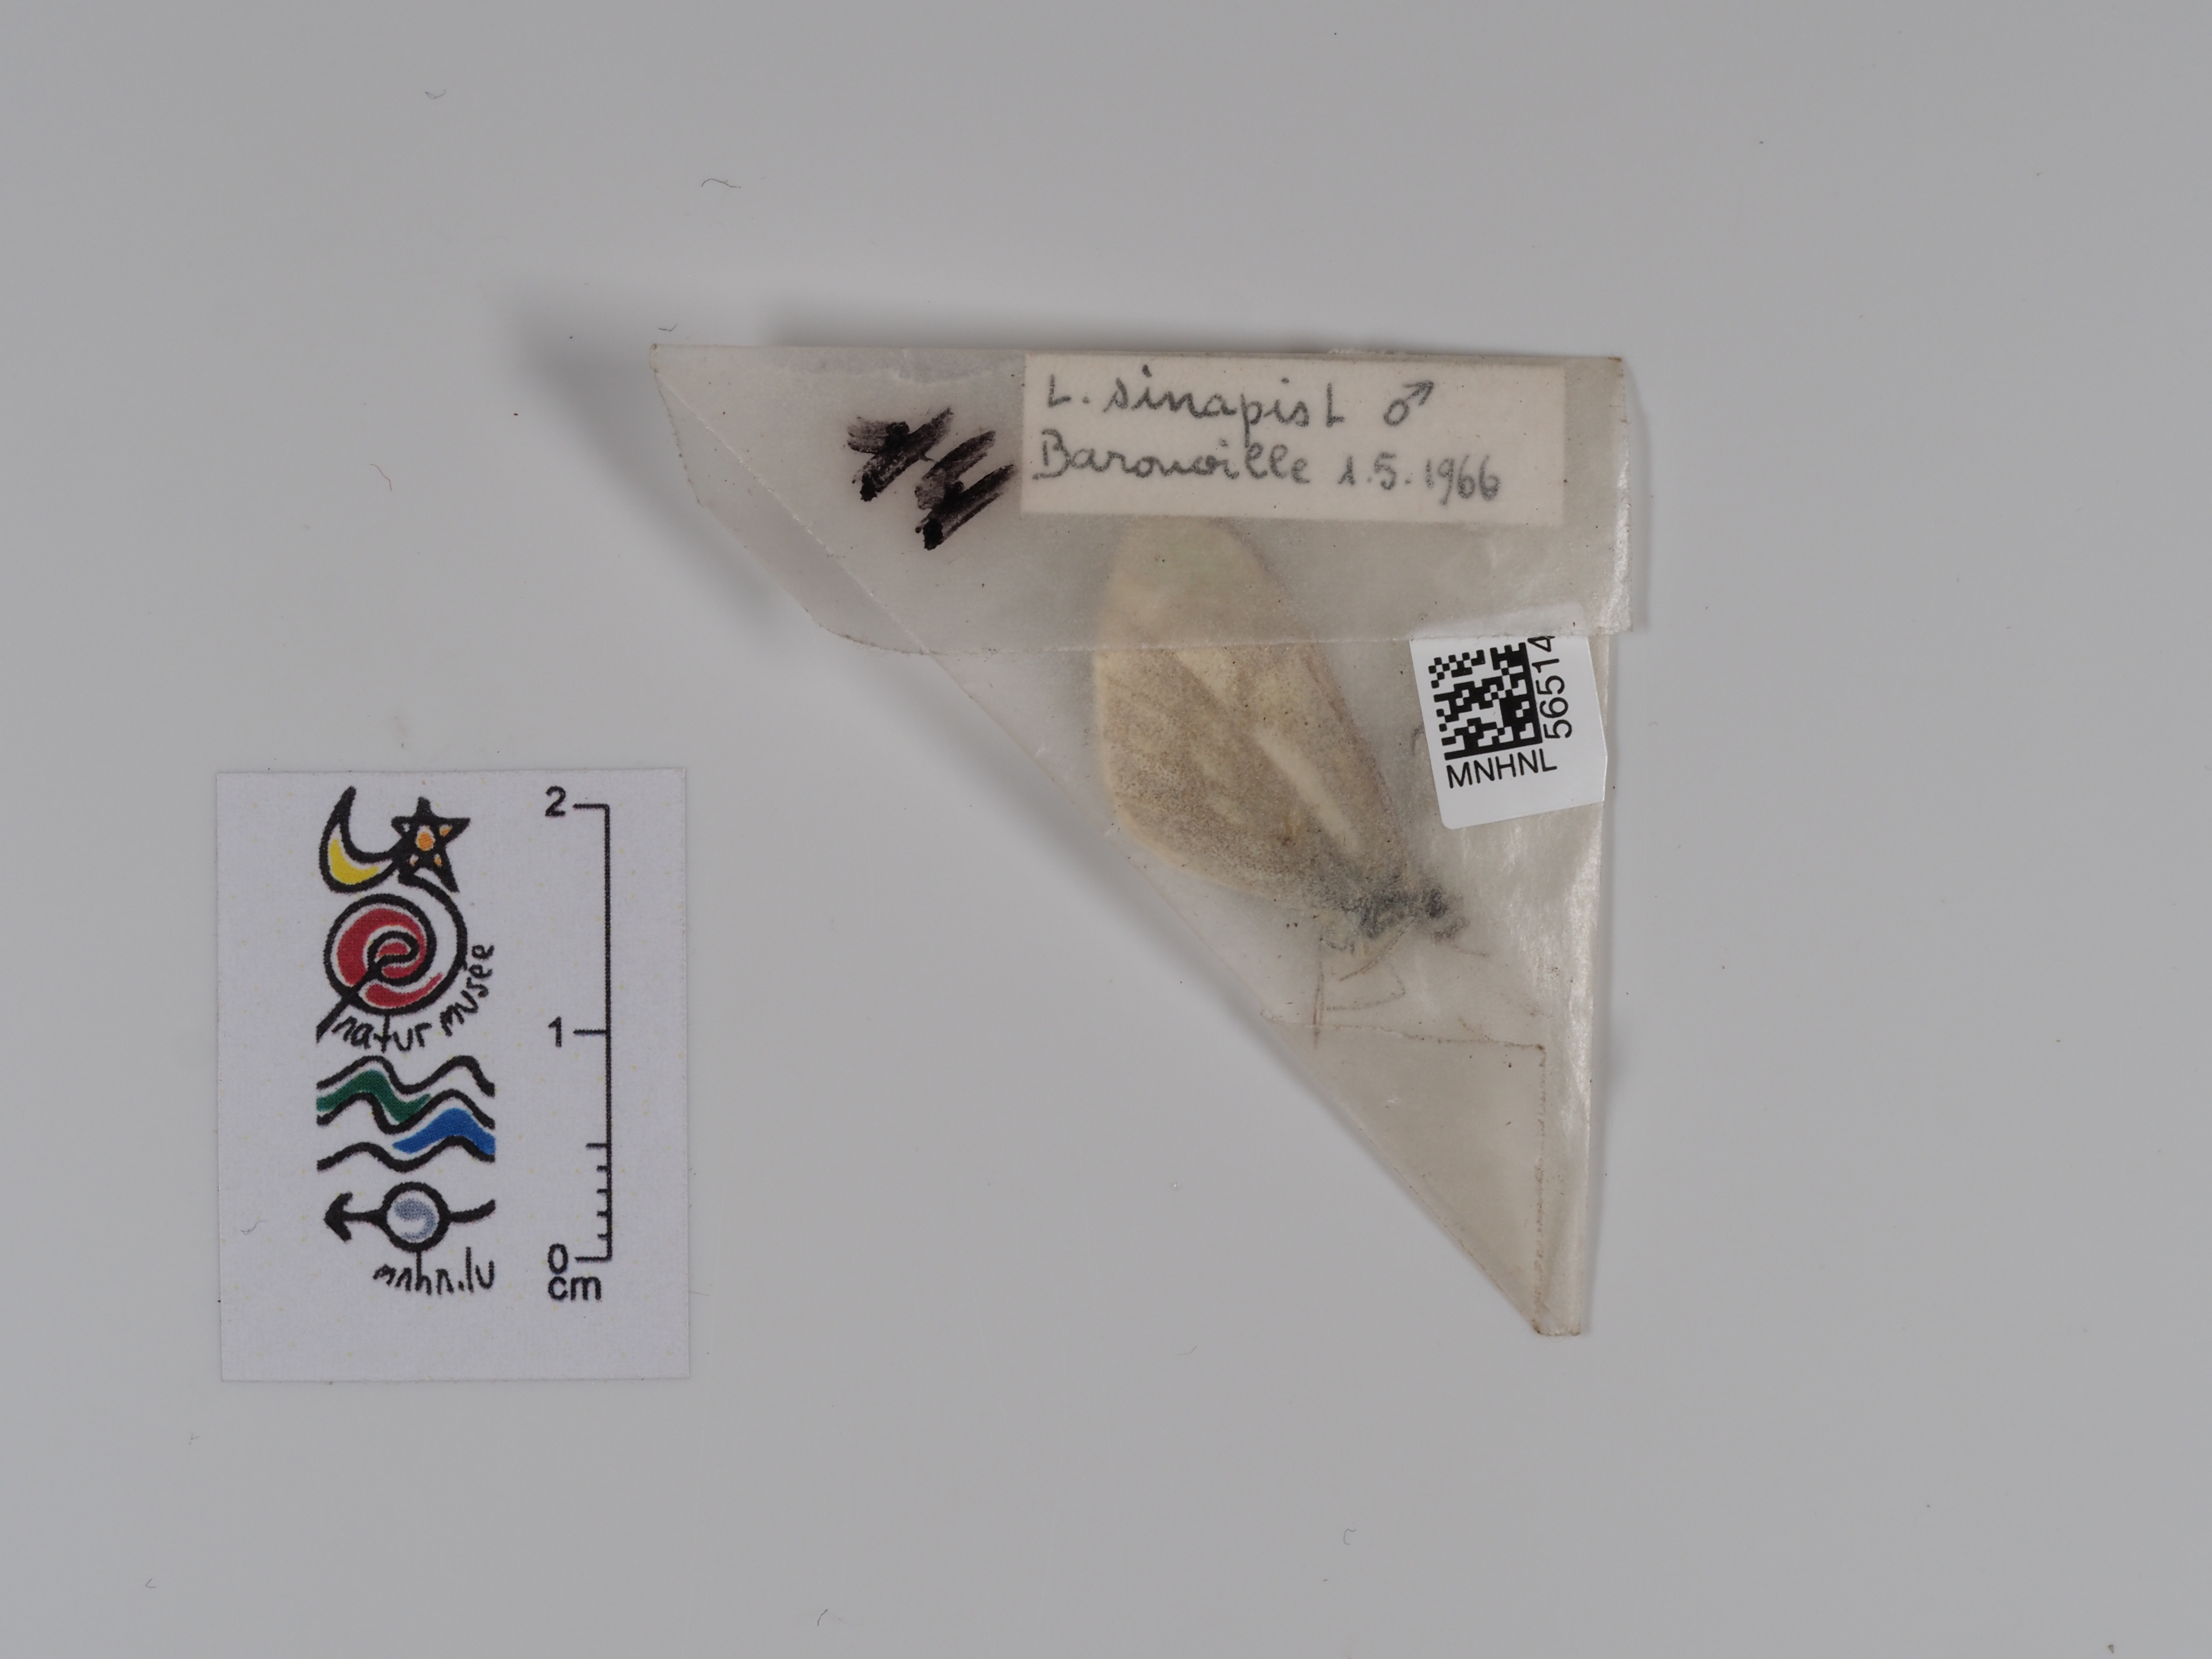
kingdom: Animalia
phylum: Arthropoda
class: Insecta
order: Lepidoptera
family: Pieridae
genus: Leptidea
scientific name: Leptidea sinapis
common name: Wood white
